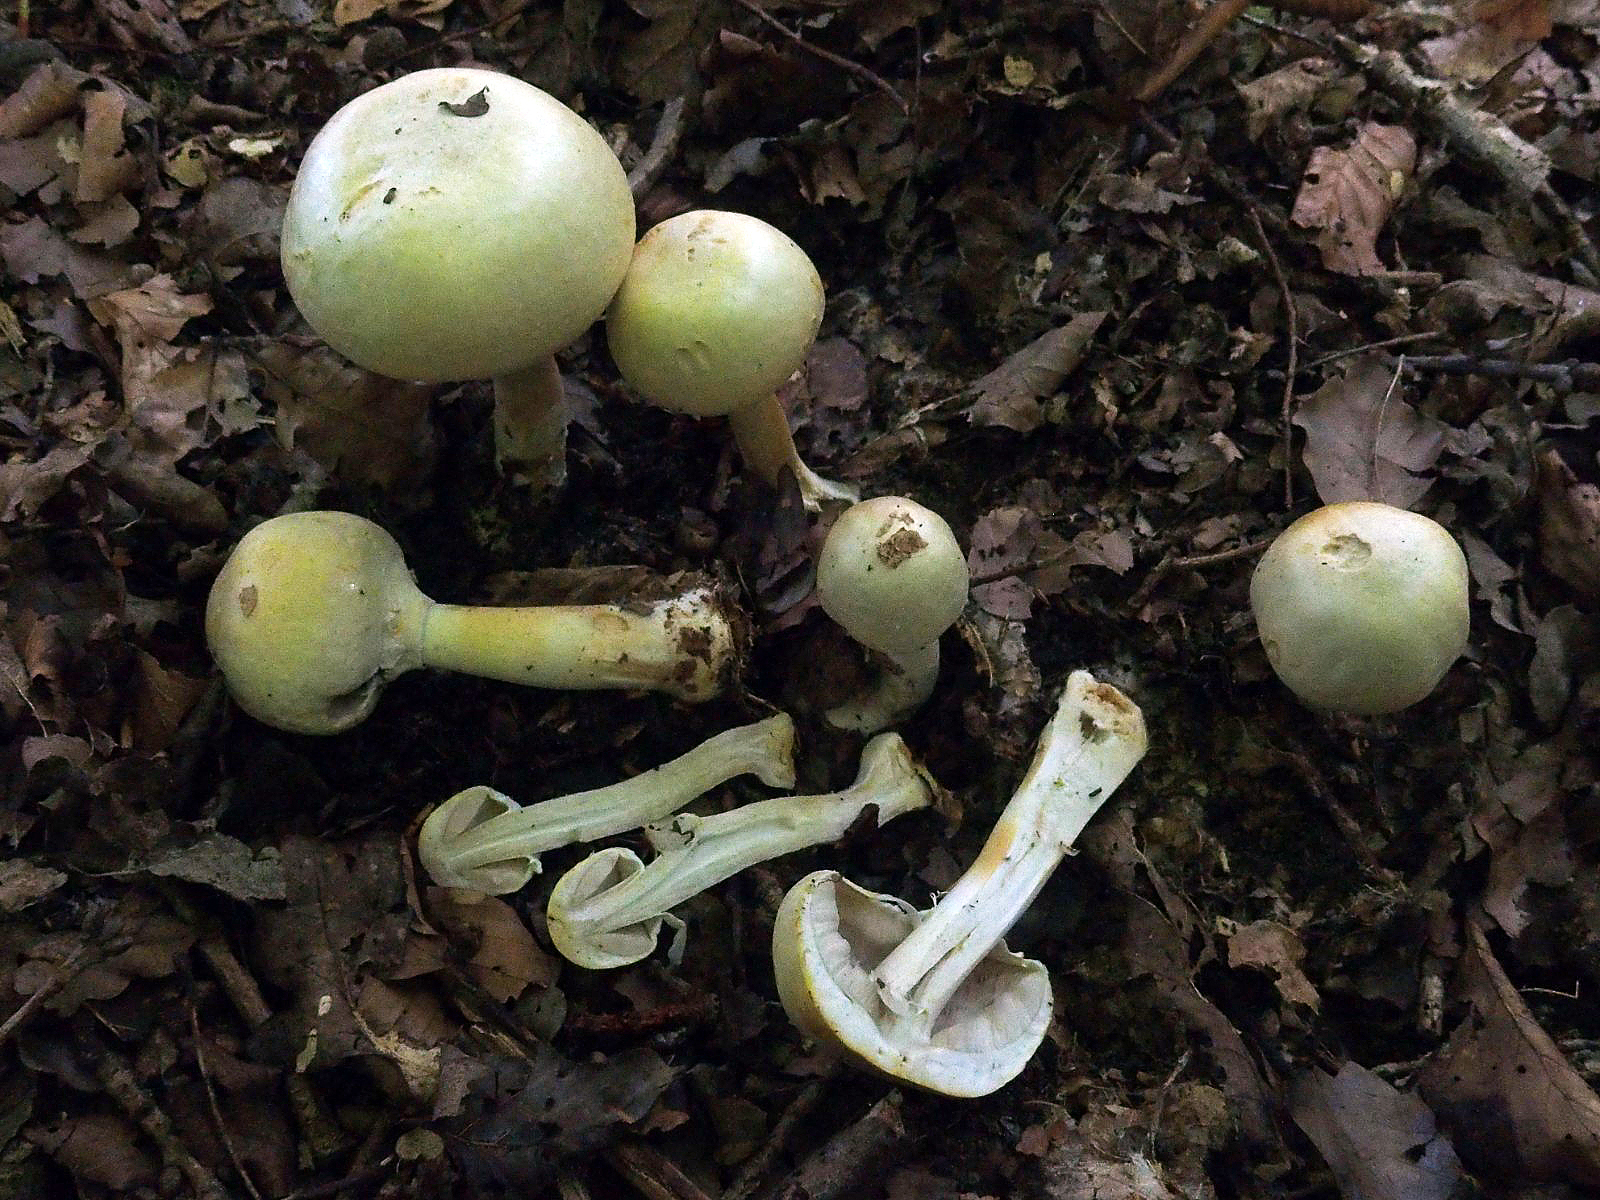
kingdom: Fungi
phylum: Basidiomycota
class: Agaricomycetes
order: Agaricales
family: Agaricaceae
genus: Agaricus
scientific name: Agaricus sylvicola
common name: skiveknoldet champignon
